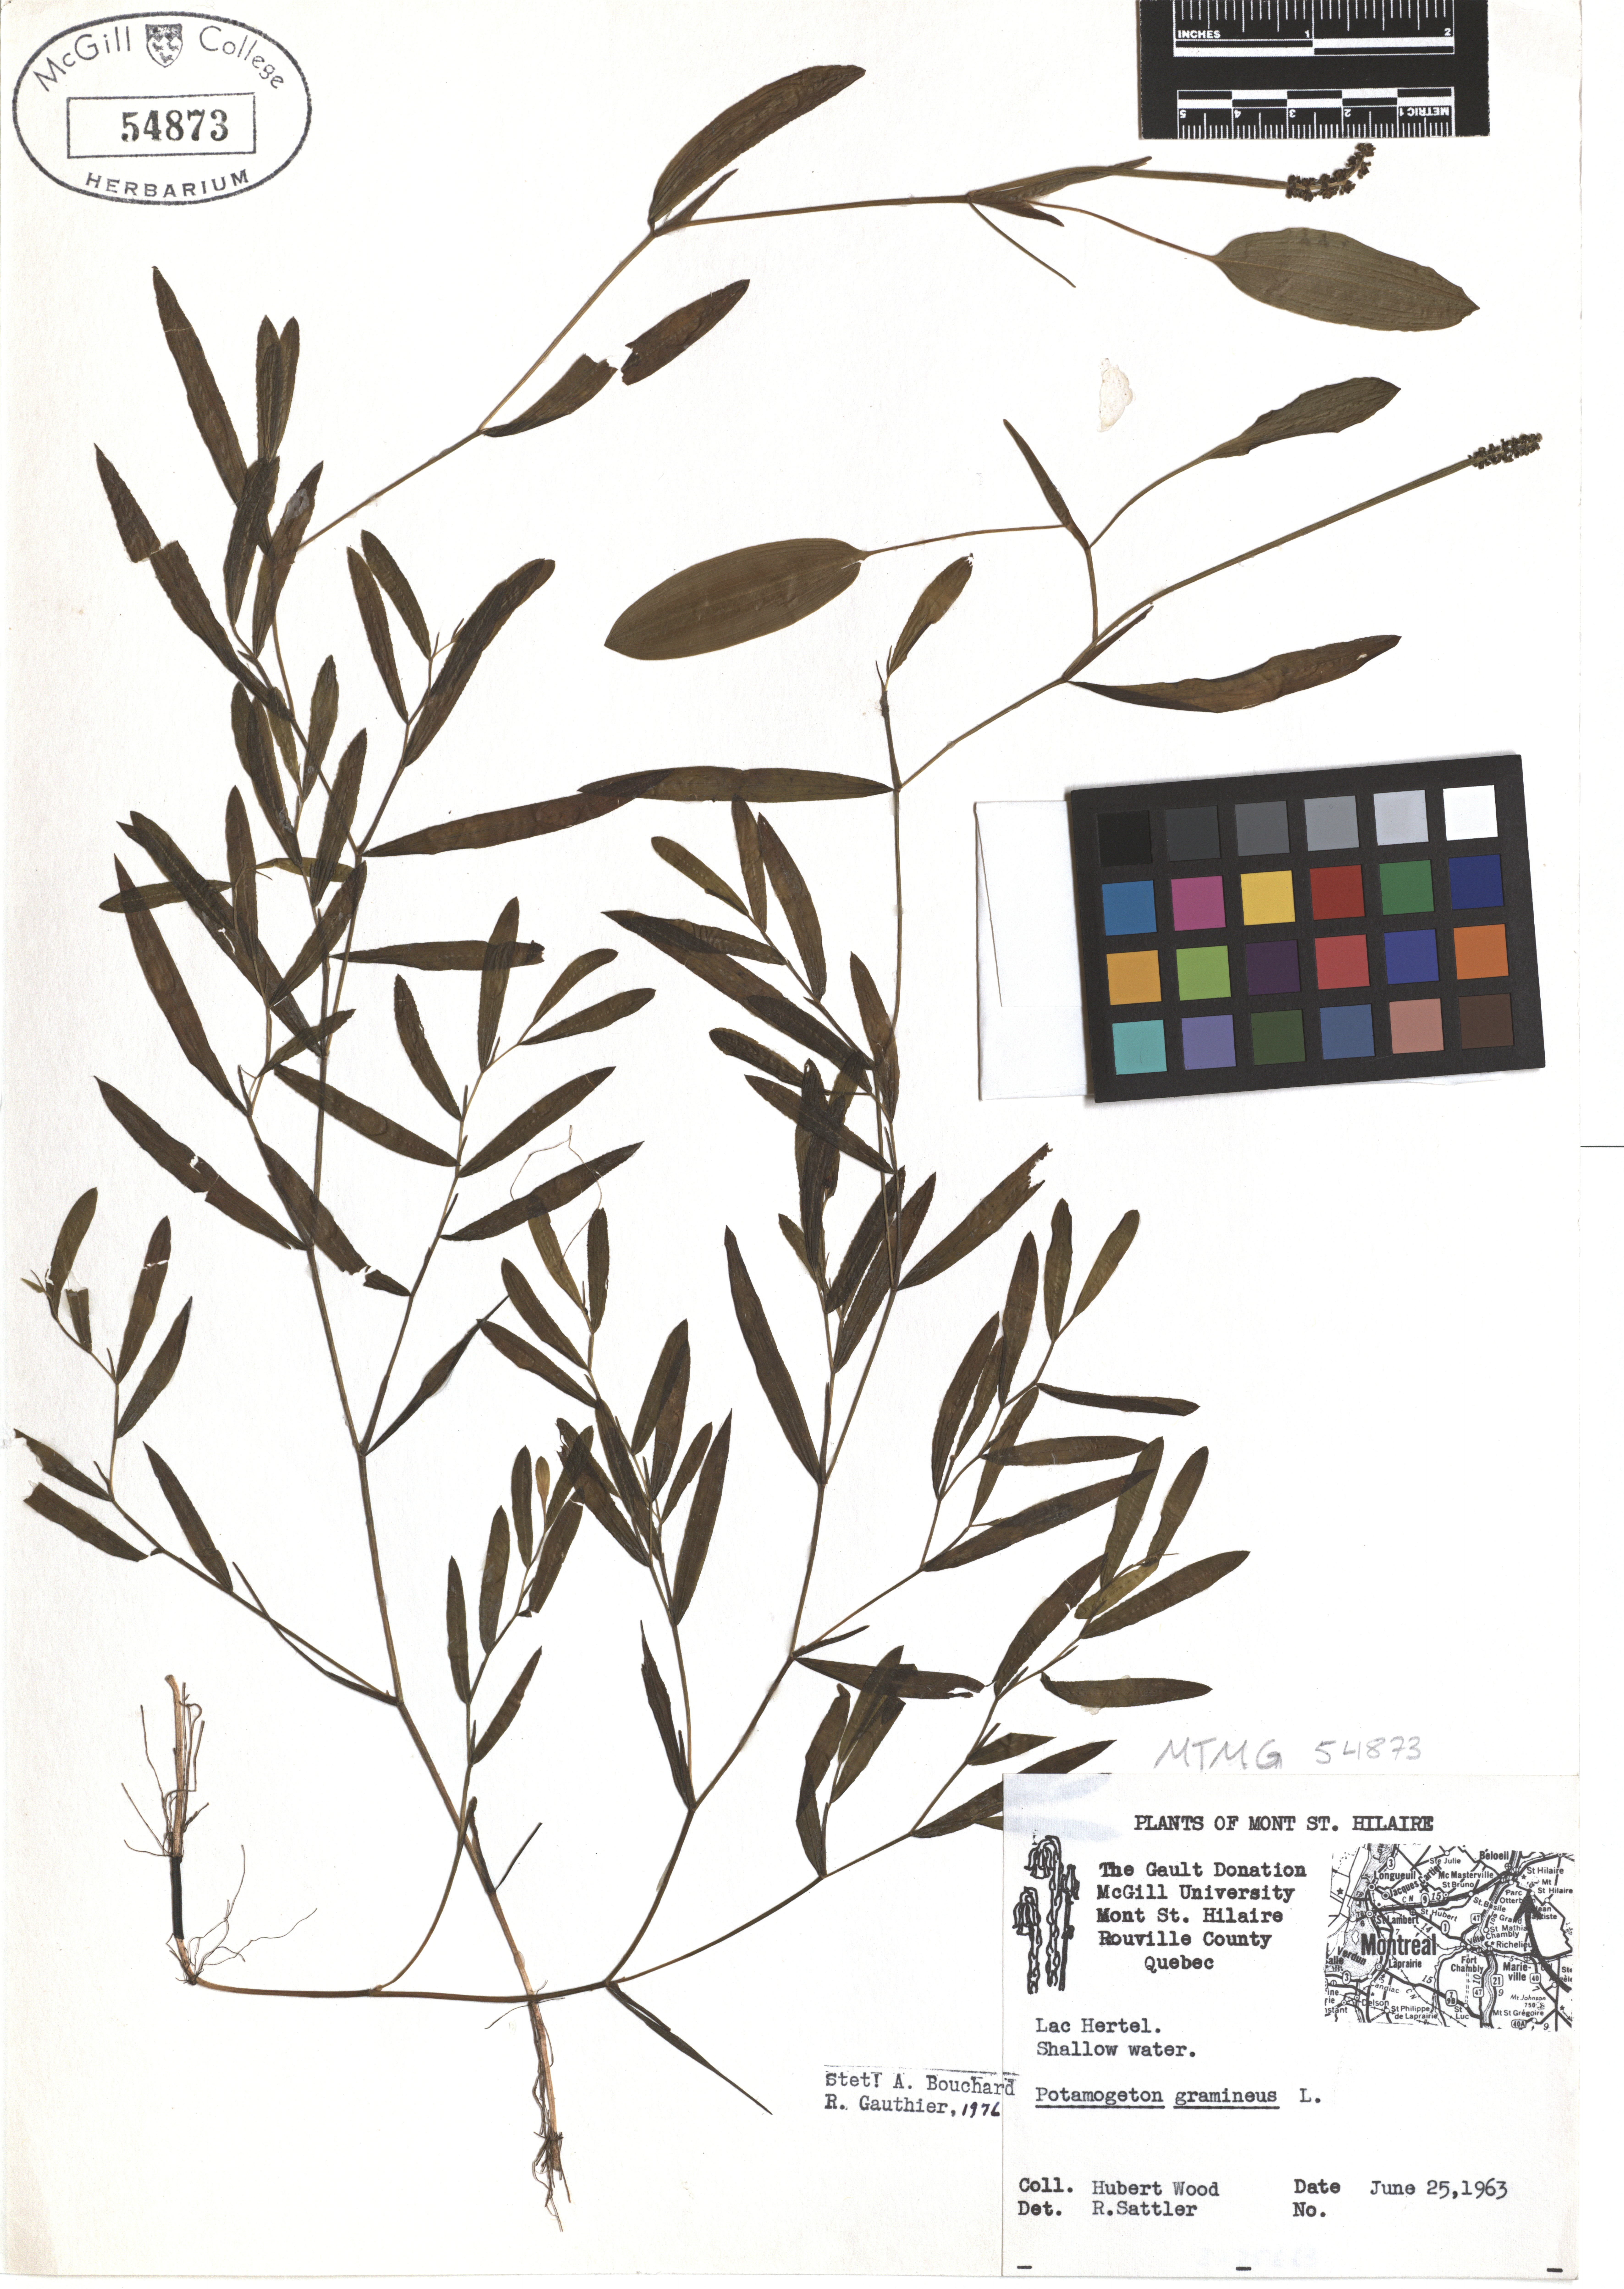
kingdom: Plantae
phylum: Tracheophyta
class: Liliopsida
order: Alismatales
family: Potamogetonaceae
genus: Potamogeton
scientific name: Potamogeton gramineus
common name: Various-leaved pondweed
